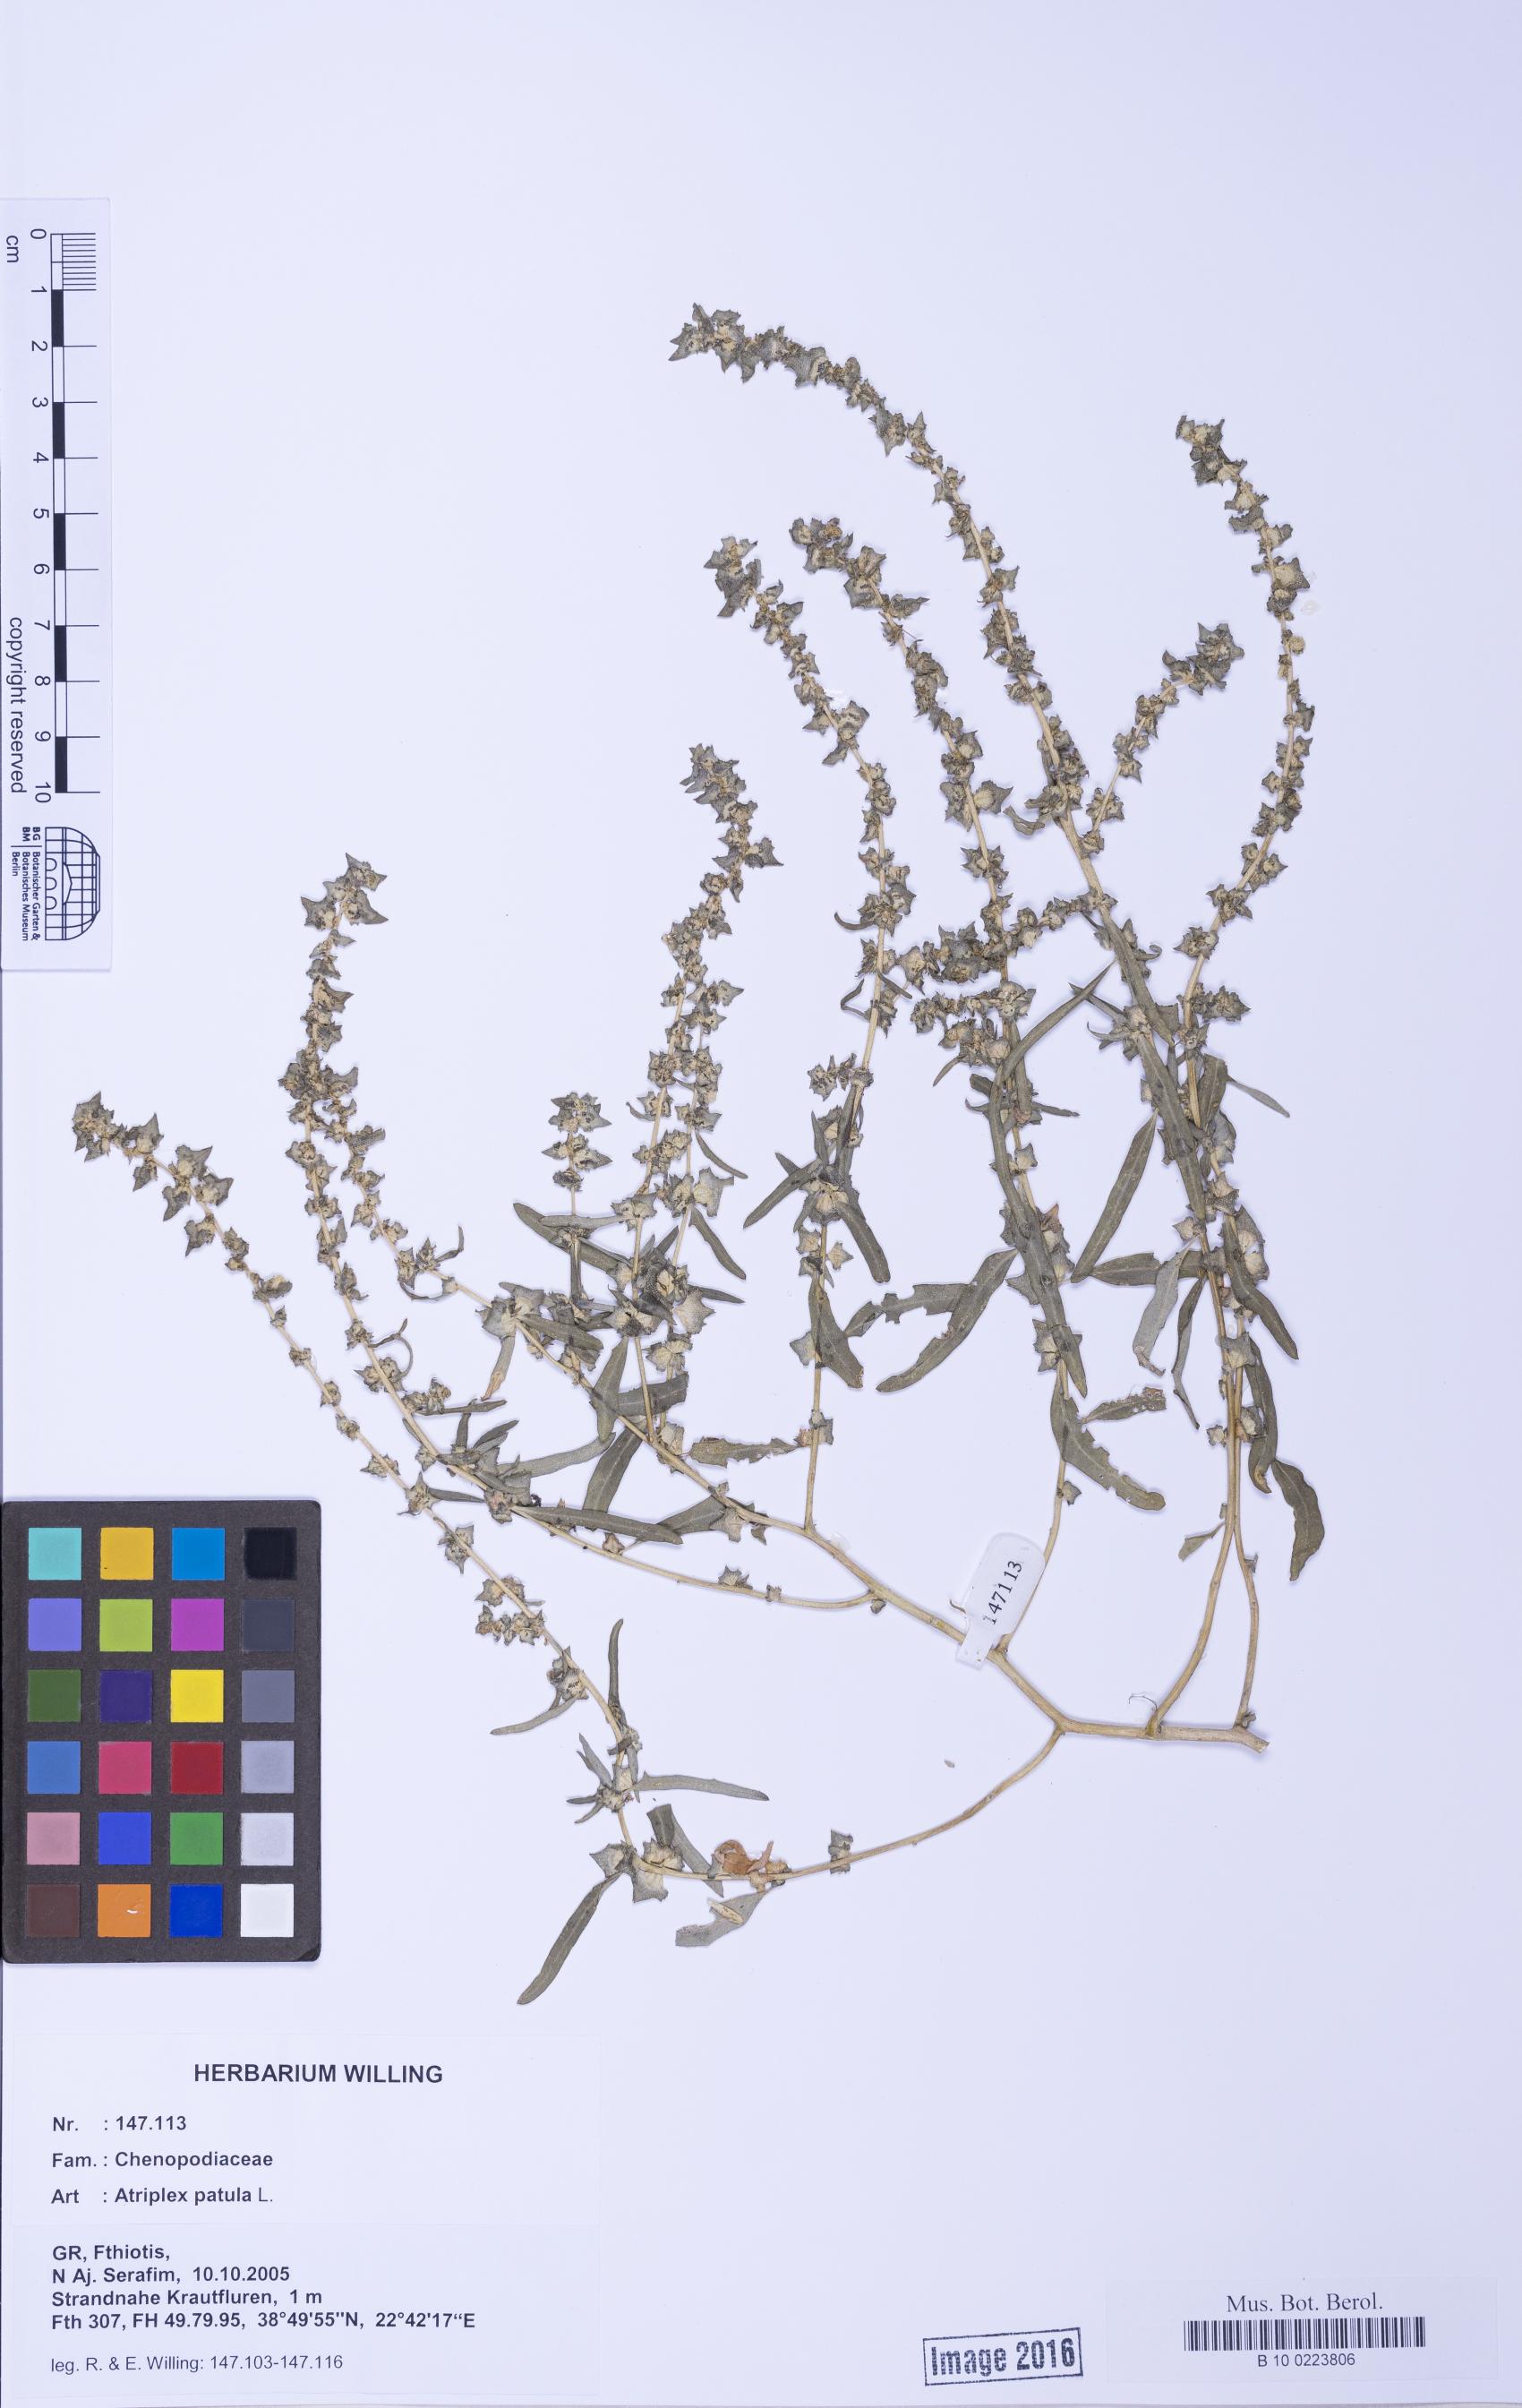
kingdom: Plantae
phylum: Tracheophyta
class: Magnoliopsida
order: Caryophyllales
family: Amaranthaceae
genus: Atriplex
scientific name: Atriplex patula
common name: Common orache
